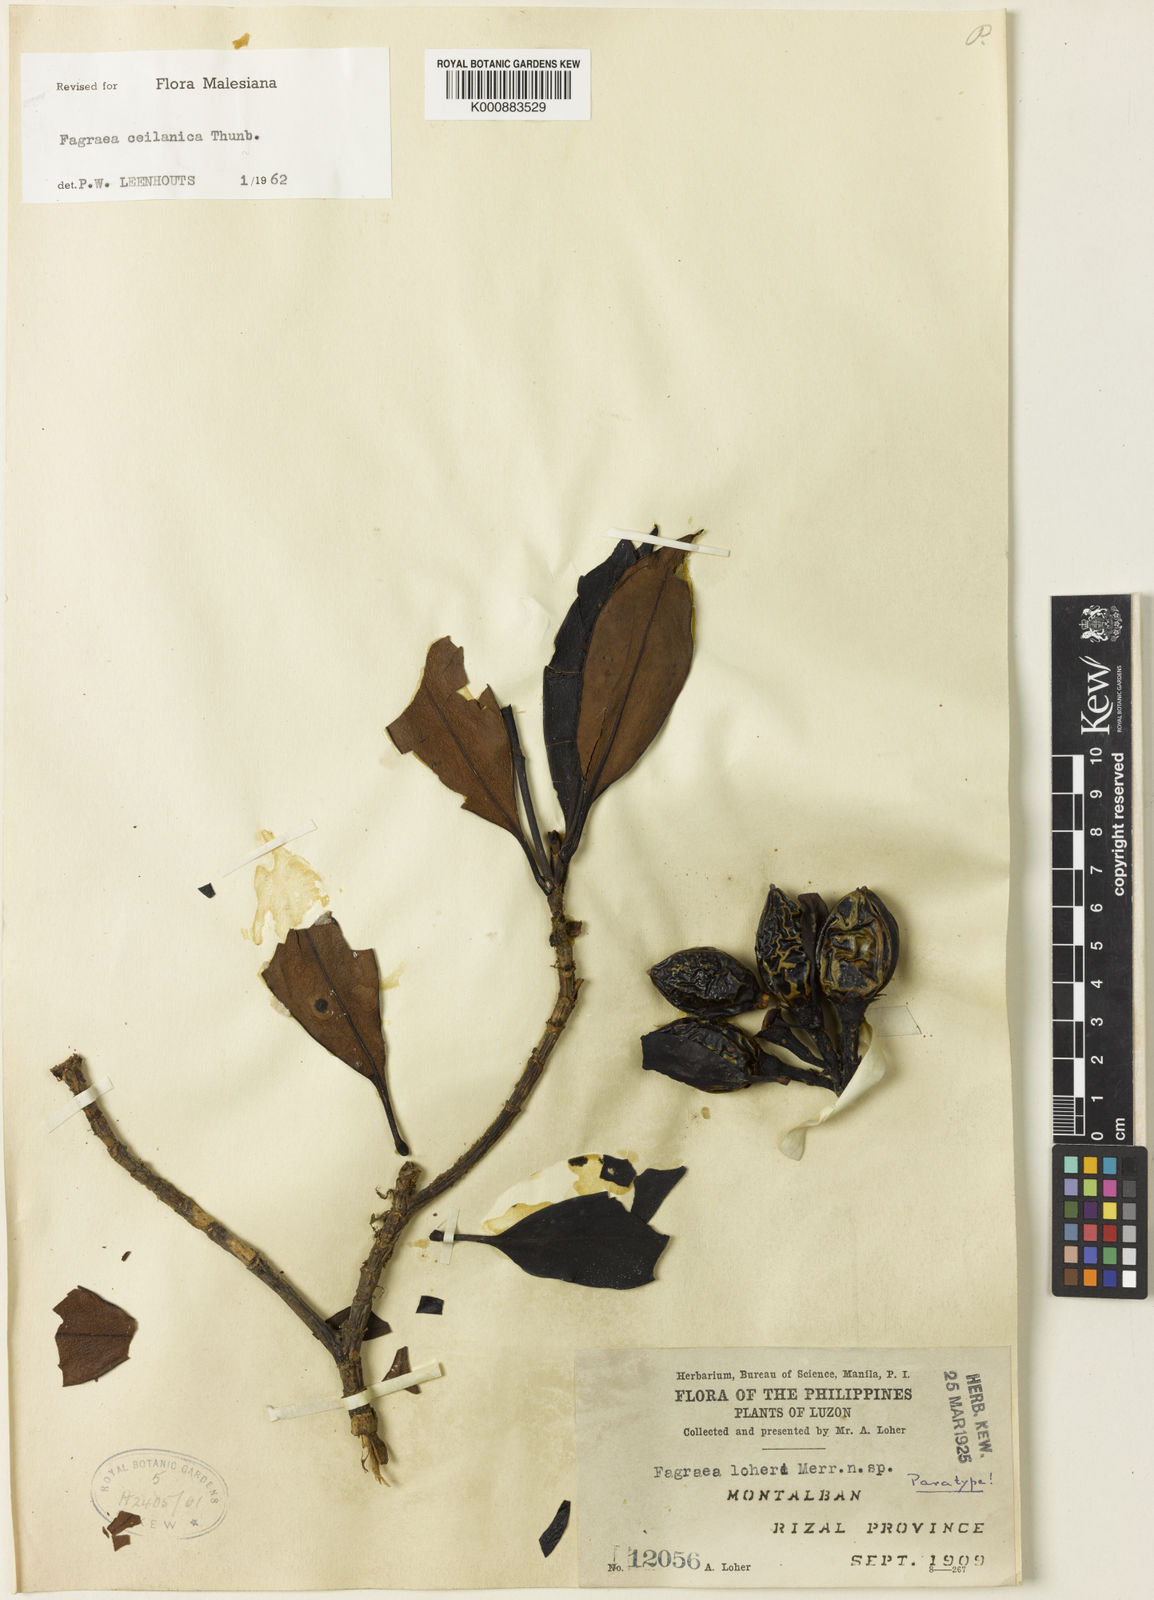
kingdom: Plantae
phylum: Tracheophyta
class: Magnoliopsida
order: Gentianales
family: Gentianaceae
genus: Fagraea
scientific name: Fagraea ceilanica
